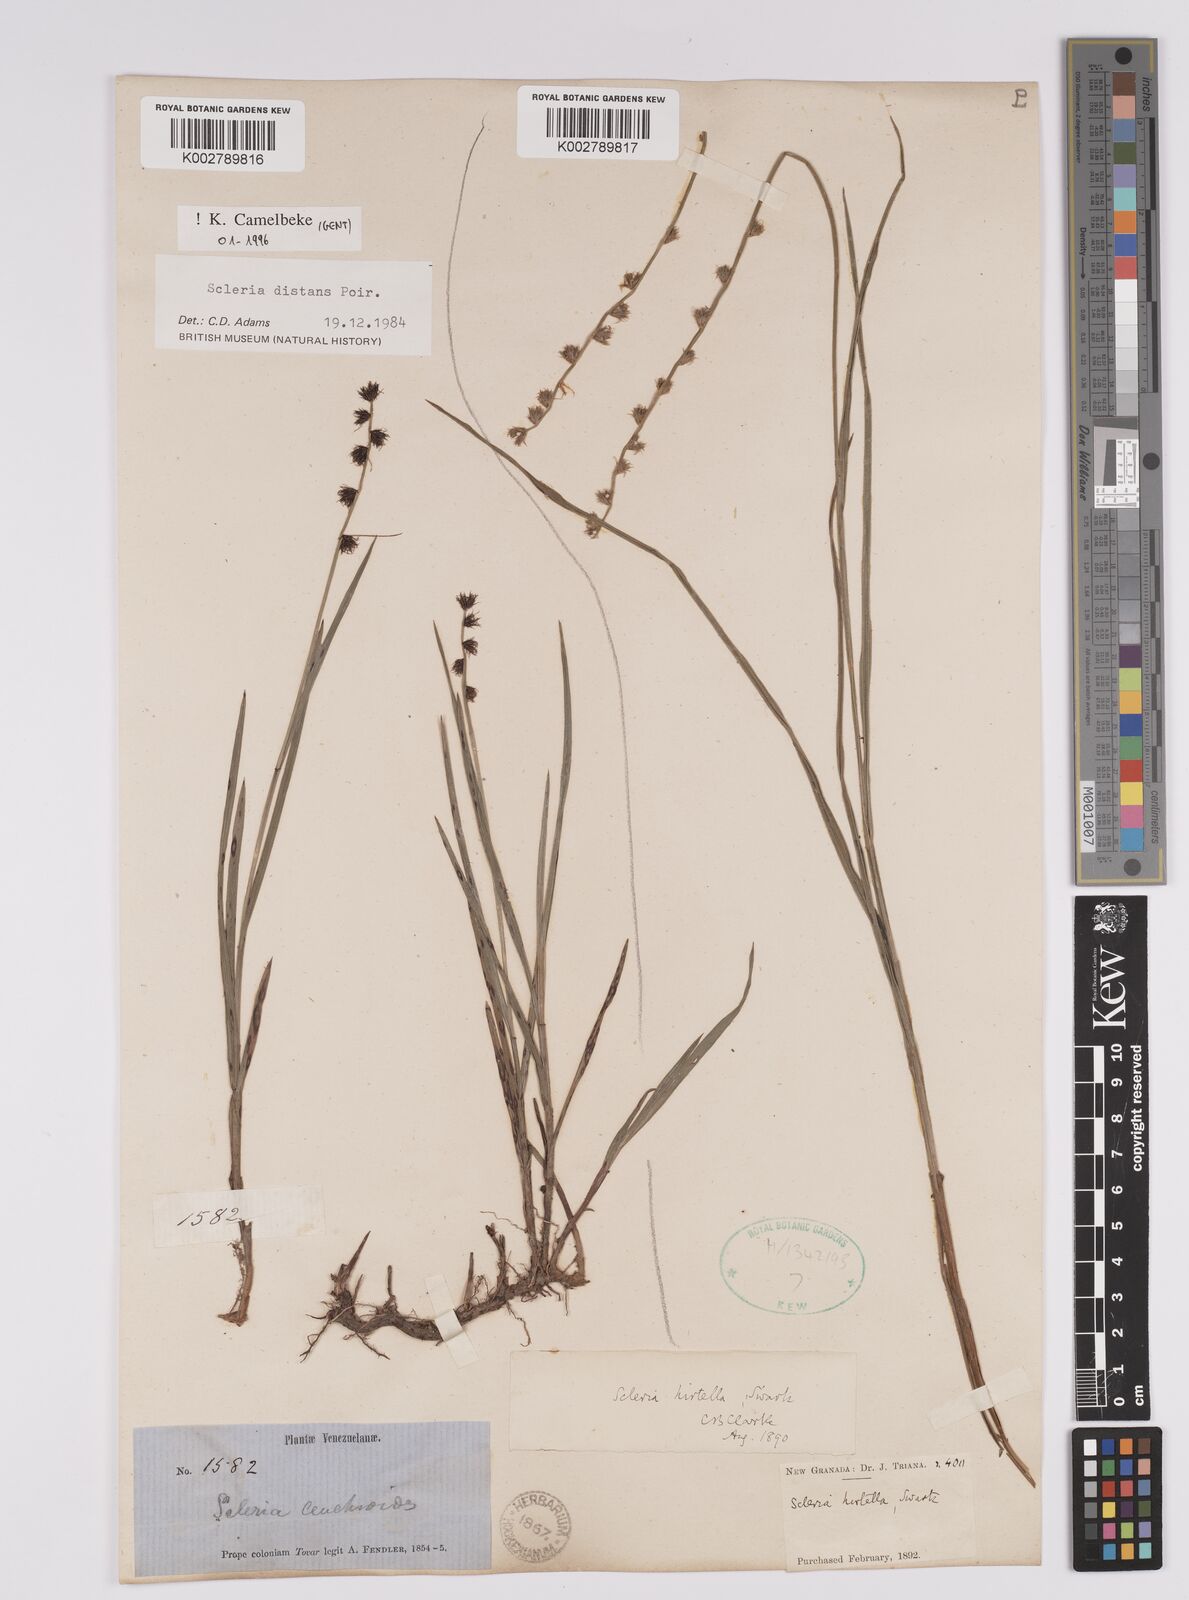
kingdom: Plantae
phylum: Tracheophyta
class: Liliopsida
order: Poales
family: Cyperaceae
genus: Scleria
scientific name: Scleria distans
